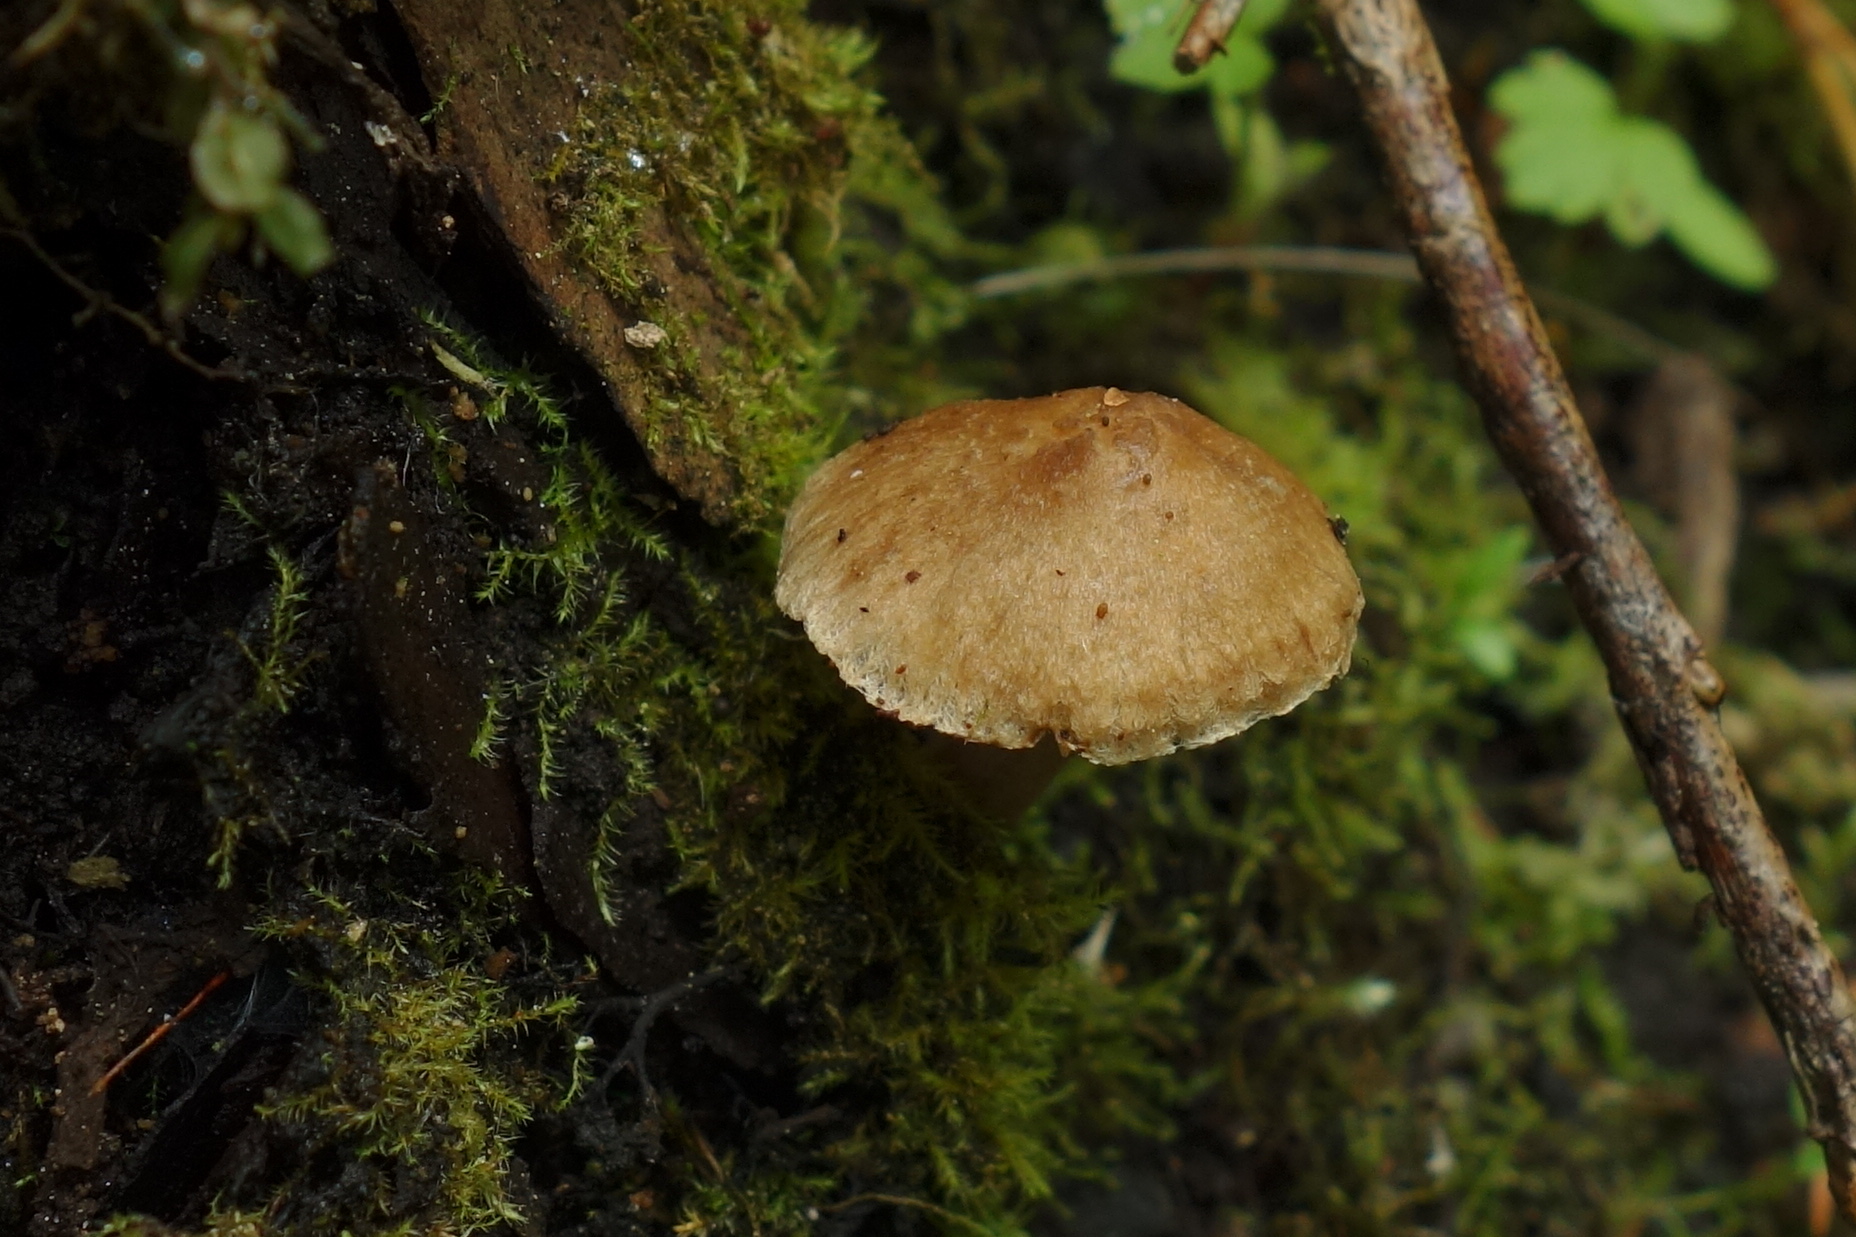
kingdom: Fungi
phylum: Basidiomycota
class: Agaricomycetes
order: Agaricales
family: Inocybaceae
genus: Inocybe
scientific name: Inocybe
